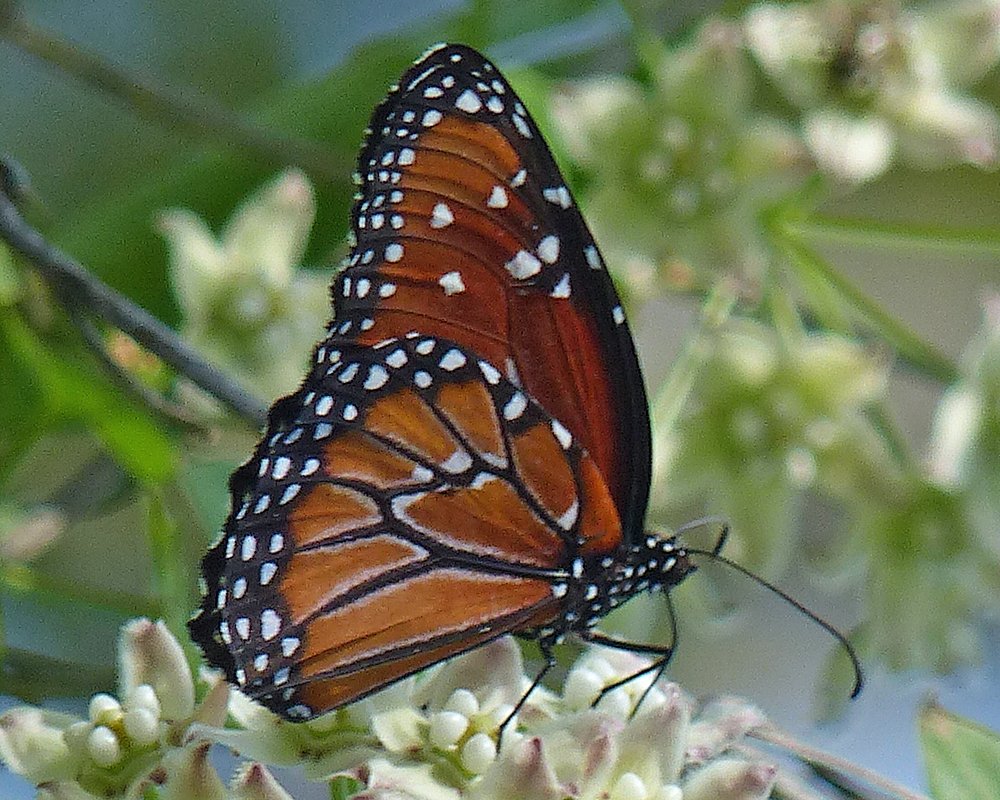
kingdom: Animalia
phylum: Arthropoda
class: Insecta
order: Lepidoptera
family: Nymphalidae
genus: Danaus
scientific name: Danaus gilippus
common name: Queen
